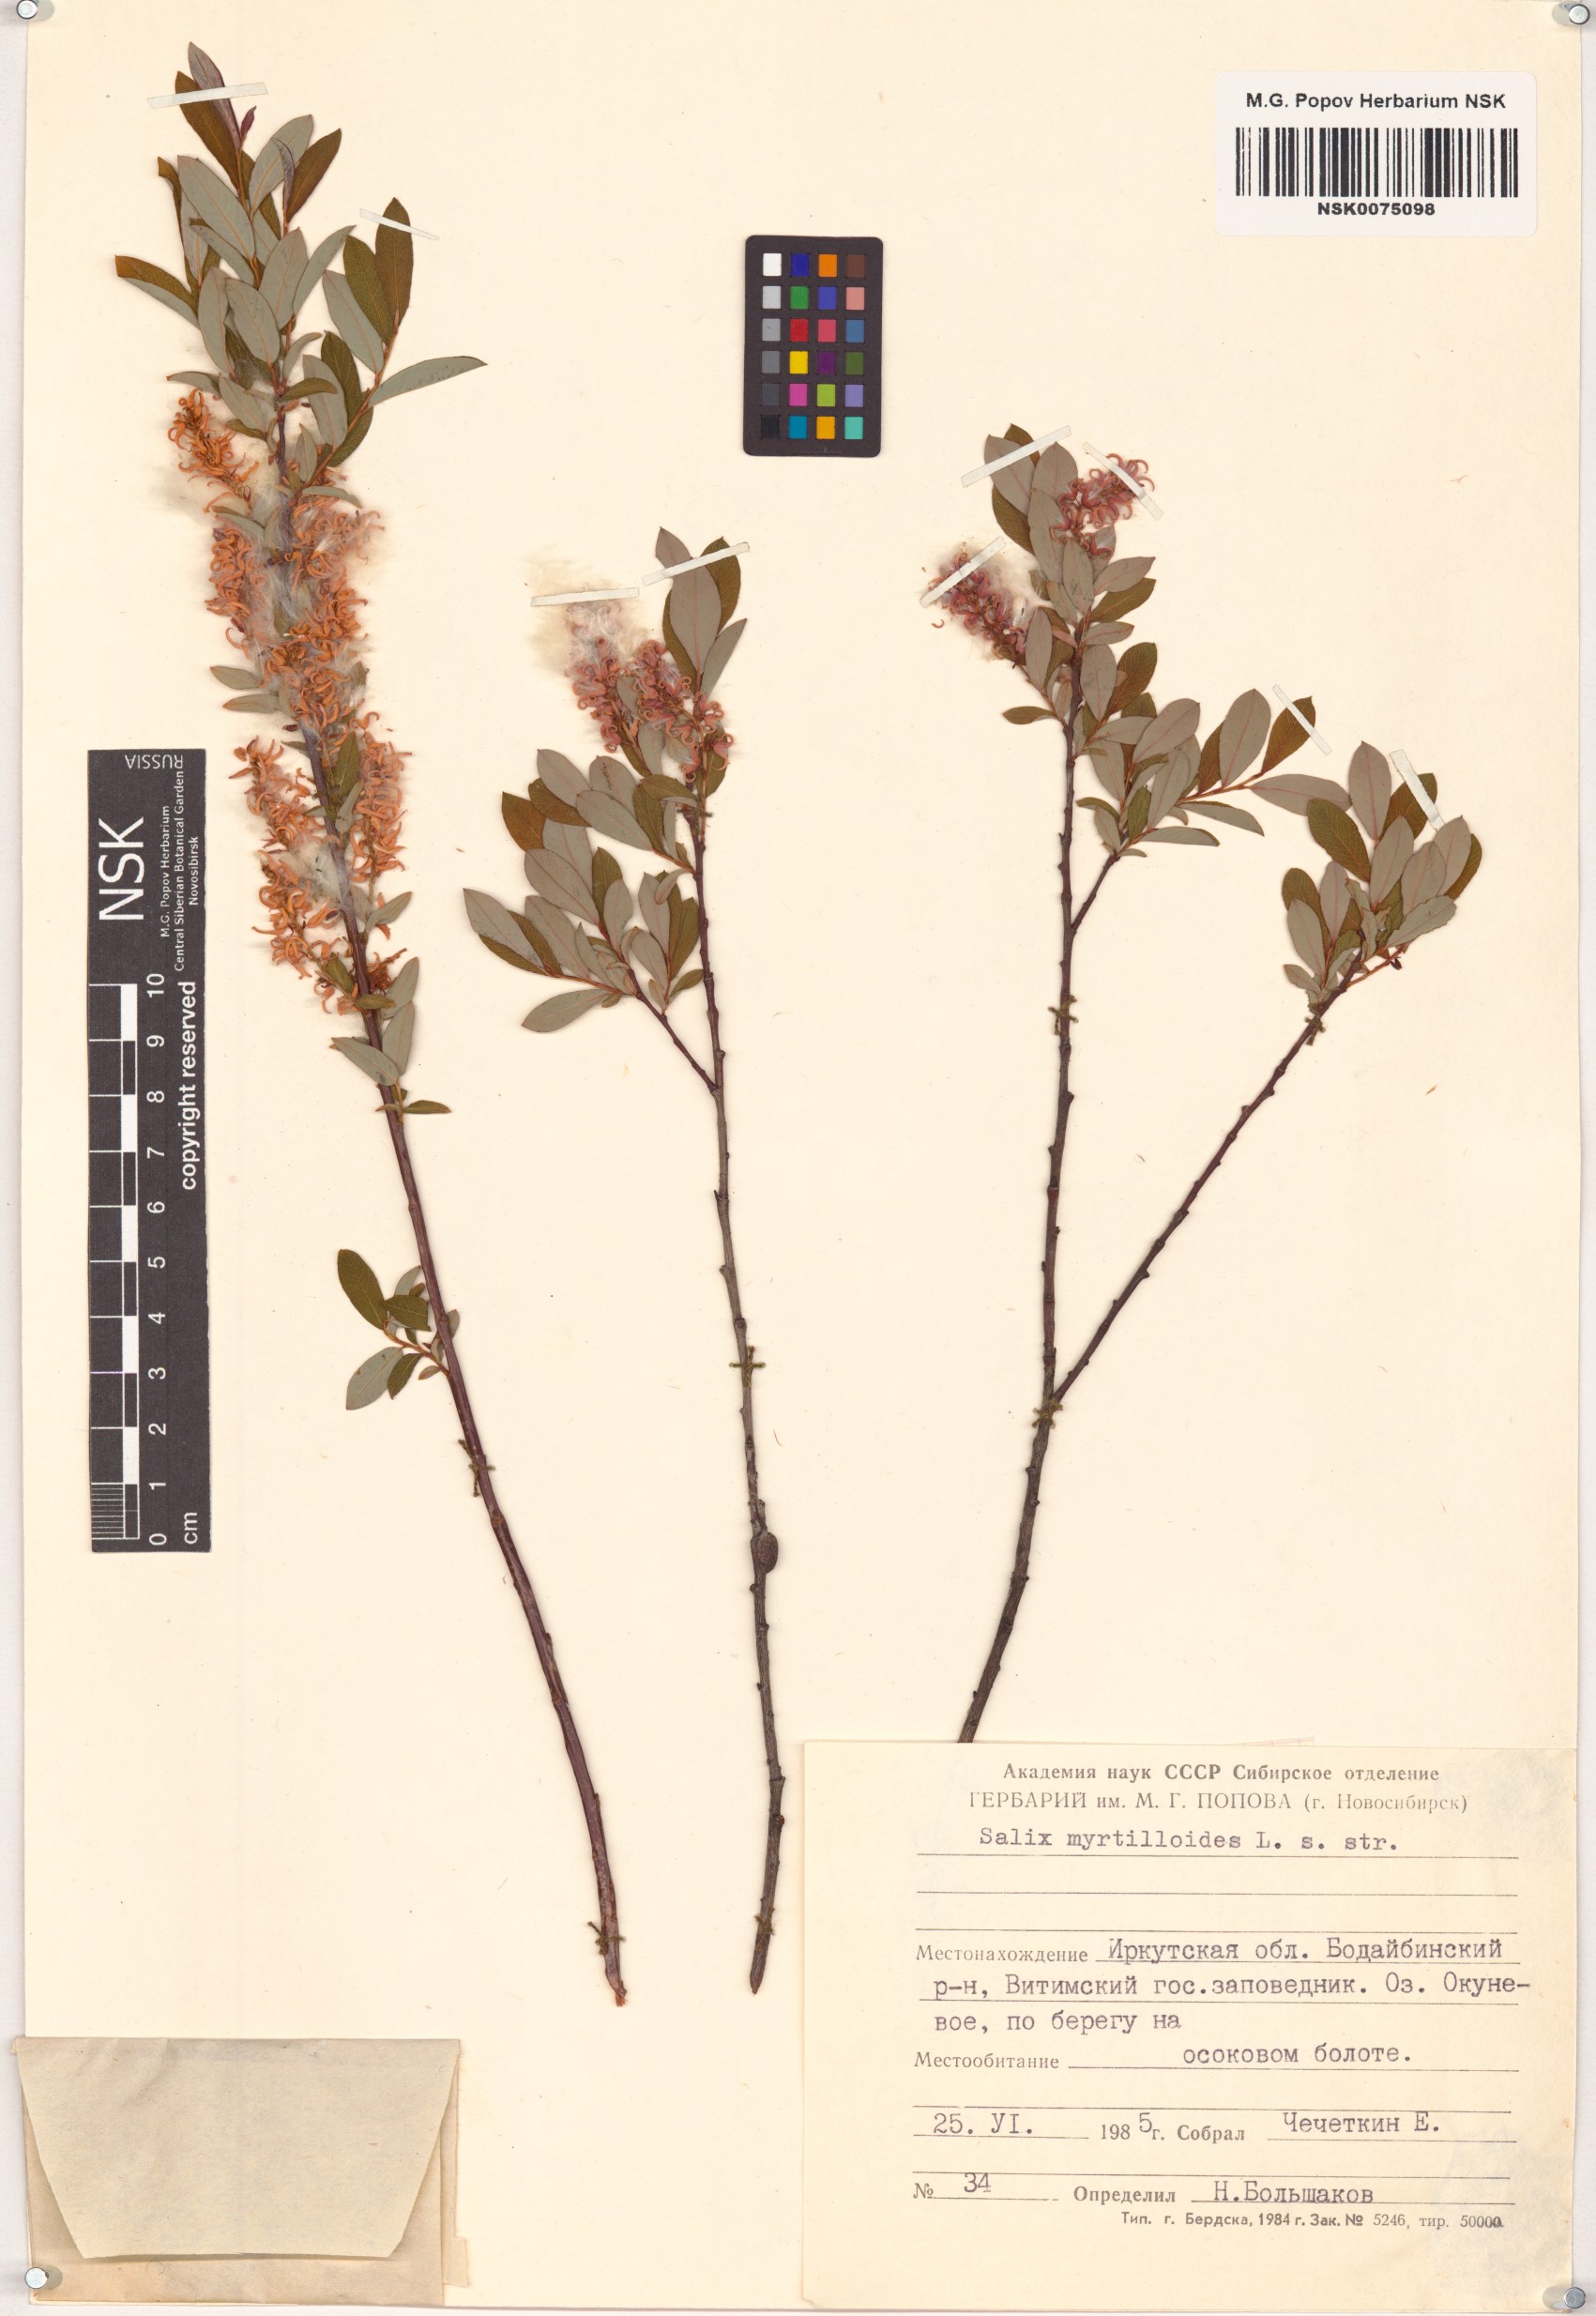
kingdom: Plantae
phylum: Tracheophyta
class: Magnoliopsida
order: Malpighiales
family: Salicaceae
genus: Salix
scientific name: Salix myrtilloides
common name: Myrtle-leaved willow
